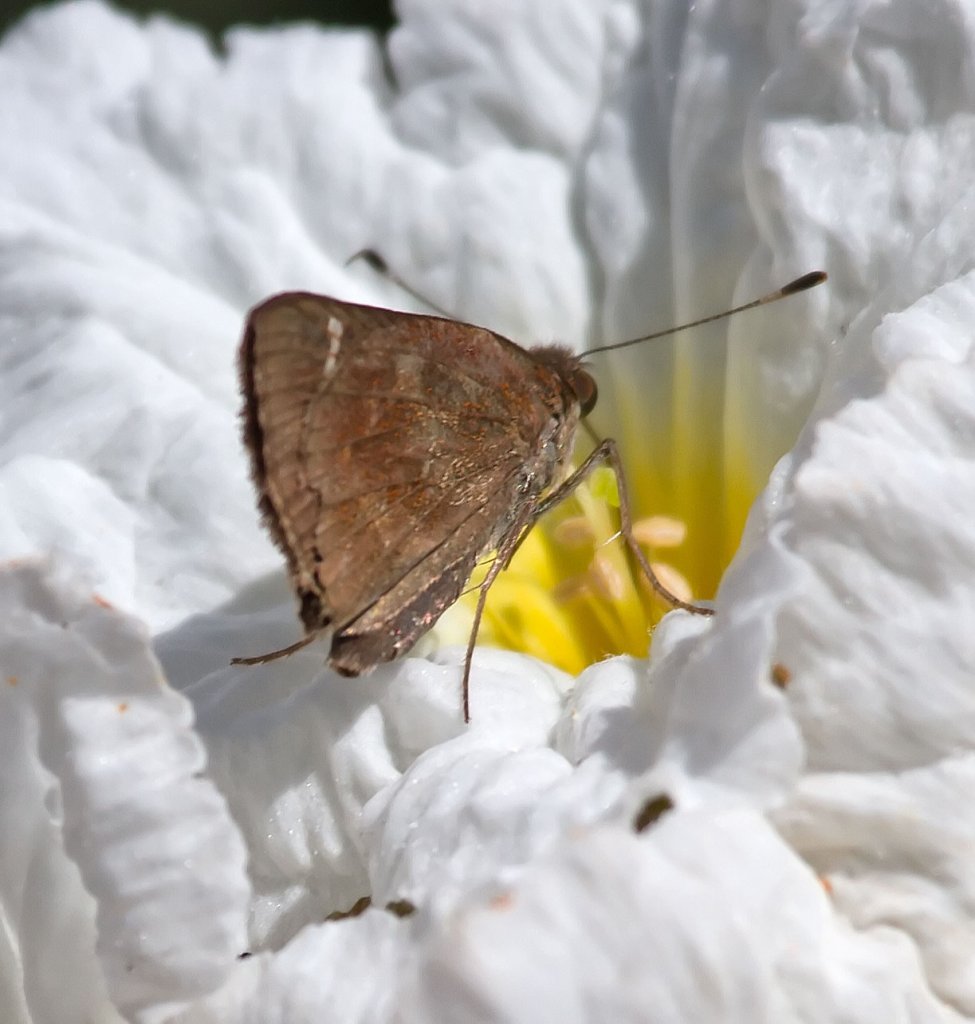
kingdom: Animalia
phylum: Arthropoda
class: Insecta
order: Lepidoptera
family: Hesperiidae
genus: Lerema
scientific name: Lerema accius
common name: Clouded Skipper
